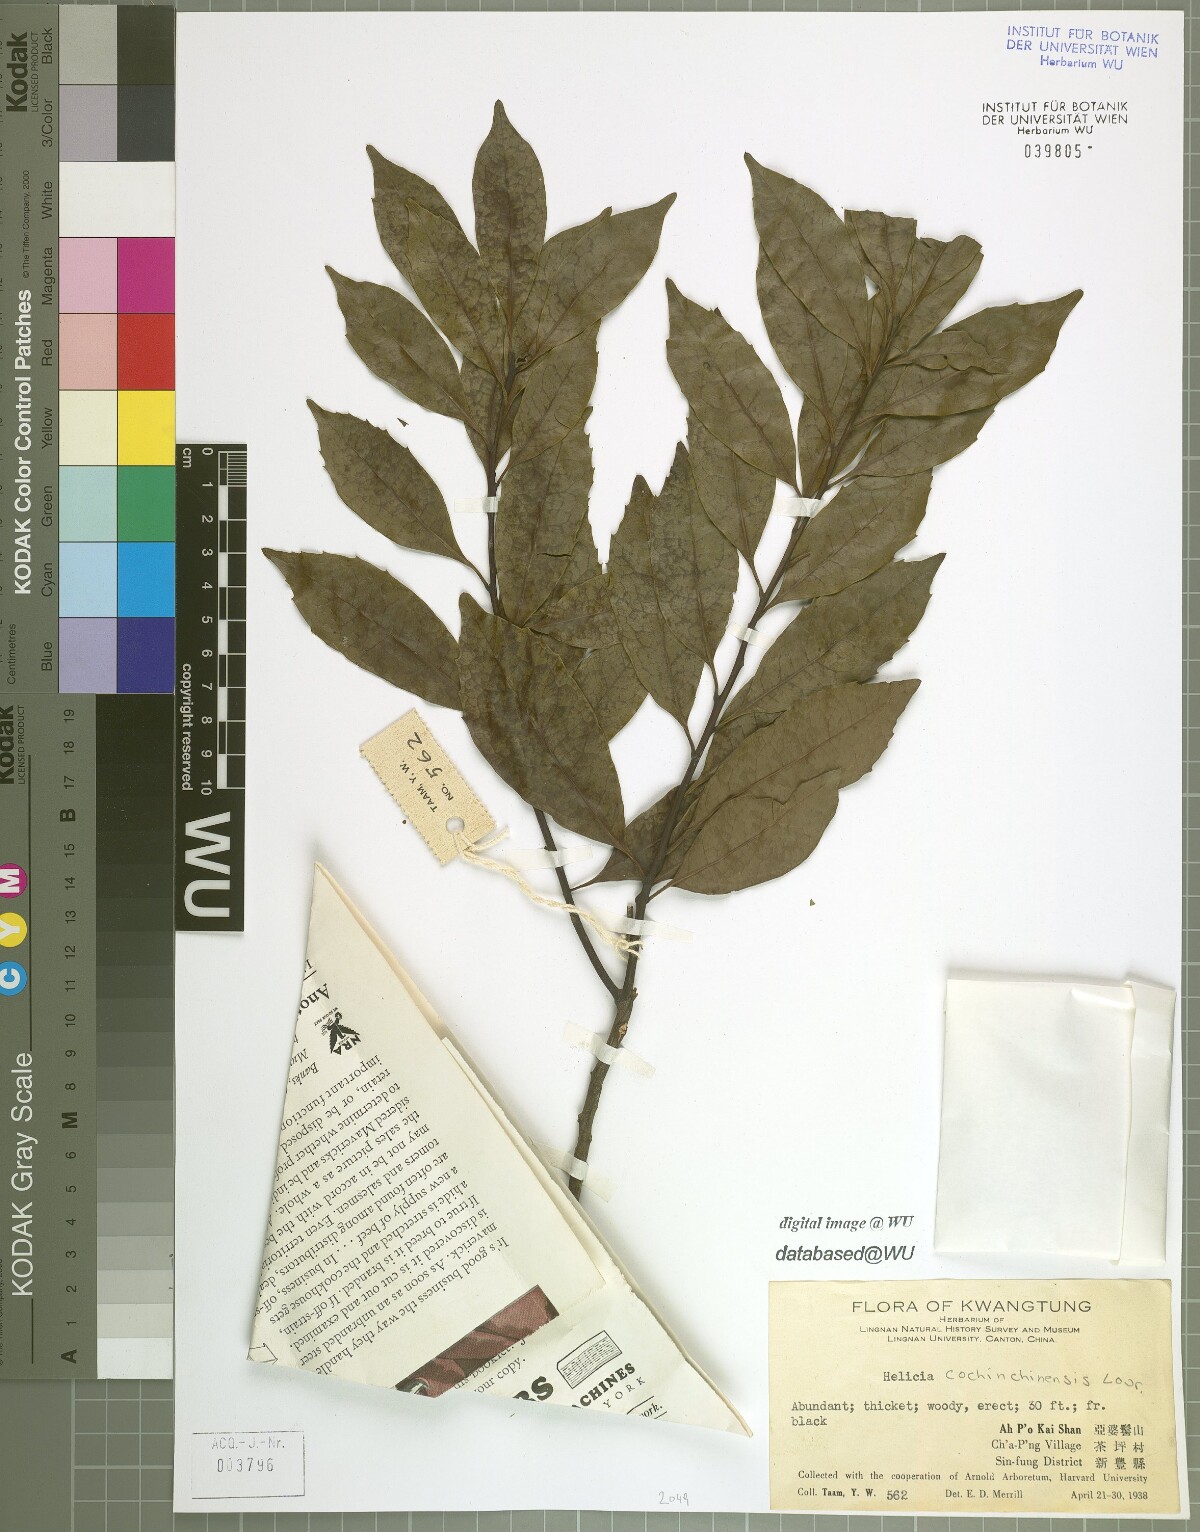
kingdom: Plantae
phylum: Tracheophyta
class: Magnoliopsida
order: Proteales
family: Proteaceae
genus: Helicia
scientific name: Helicia cochinchinensis
